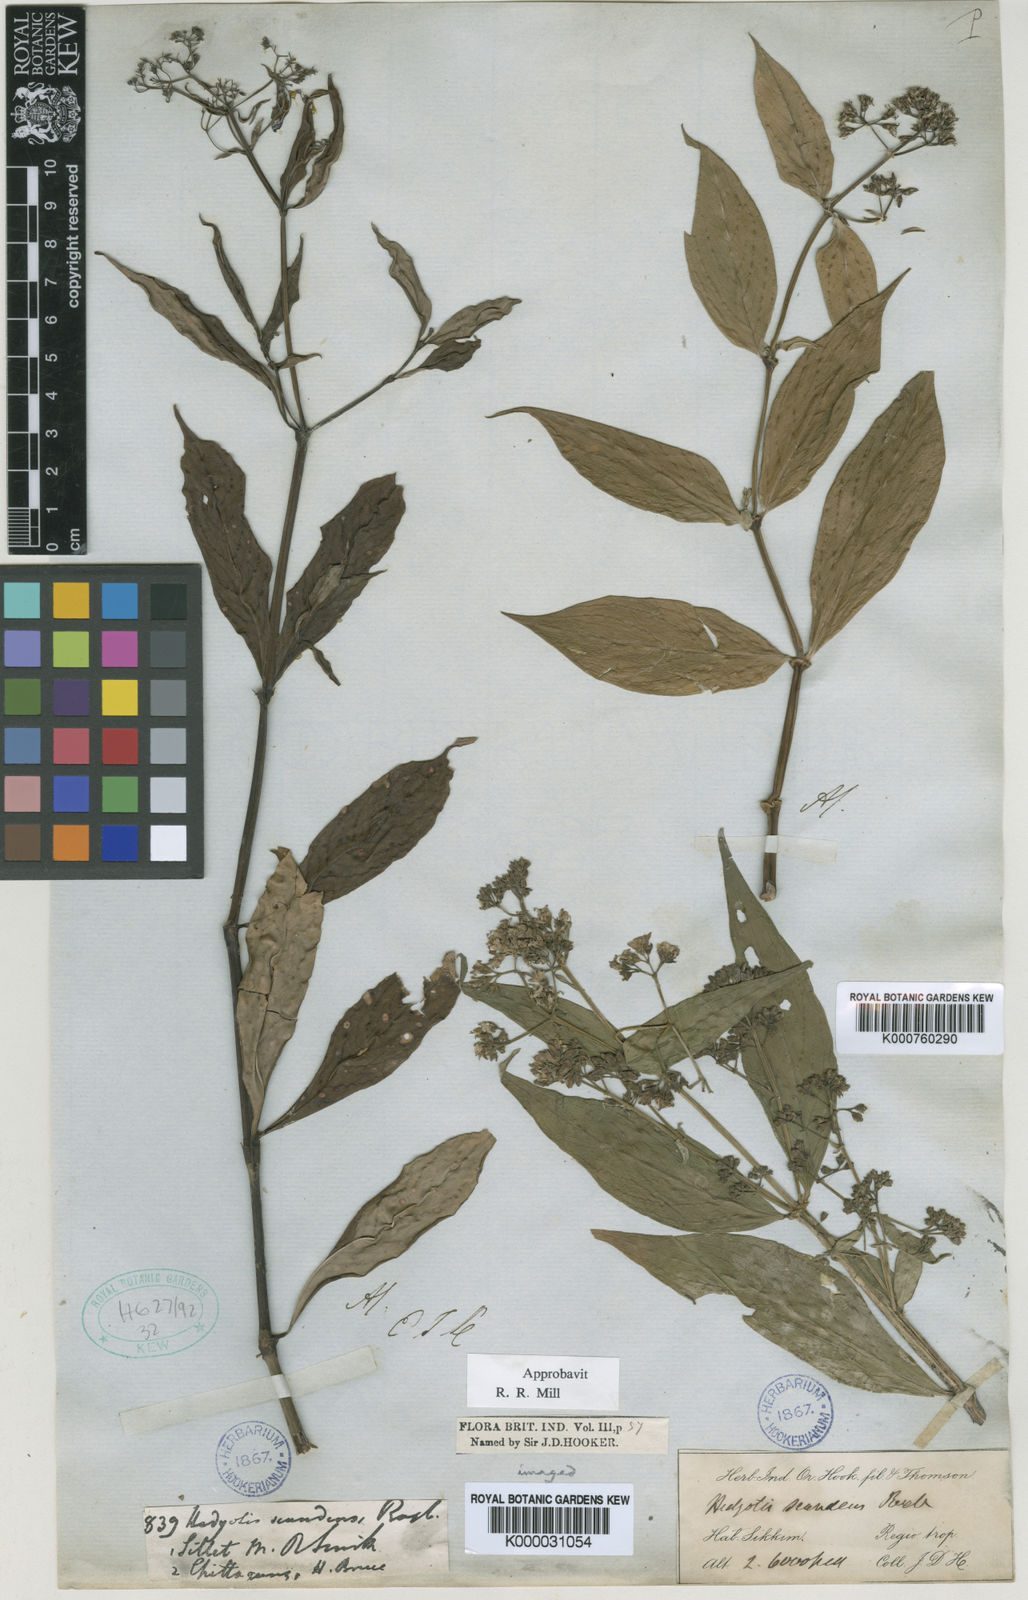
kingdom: Plantae
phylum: Tracheophyta
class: Magnoliopsida
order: Gentianales
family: Rubiaceae
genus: Dimetia
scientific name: Dimetia capitellata
